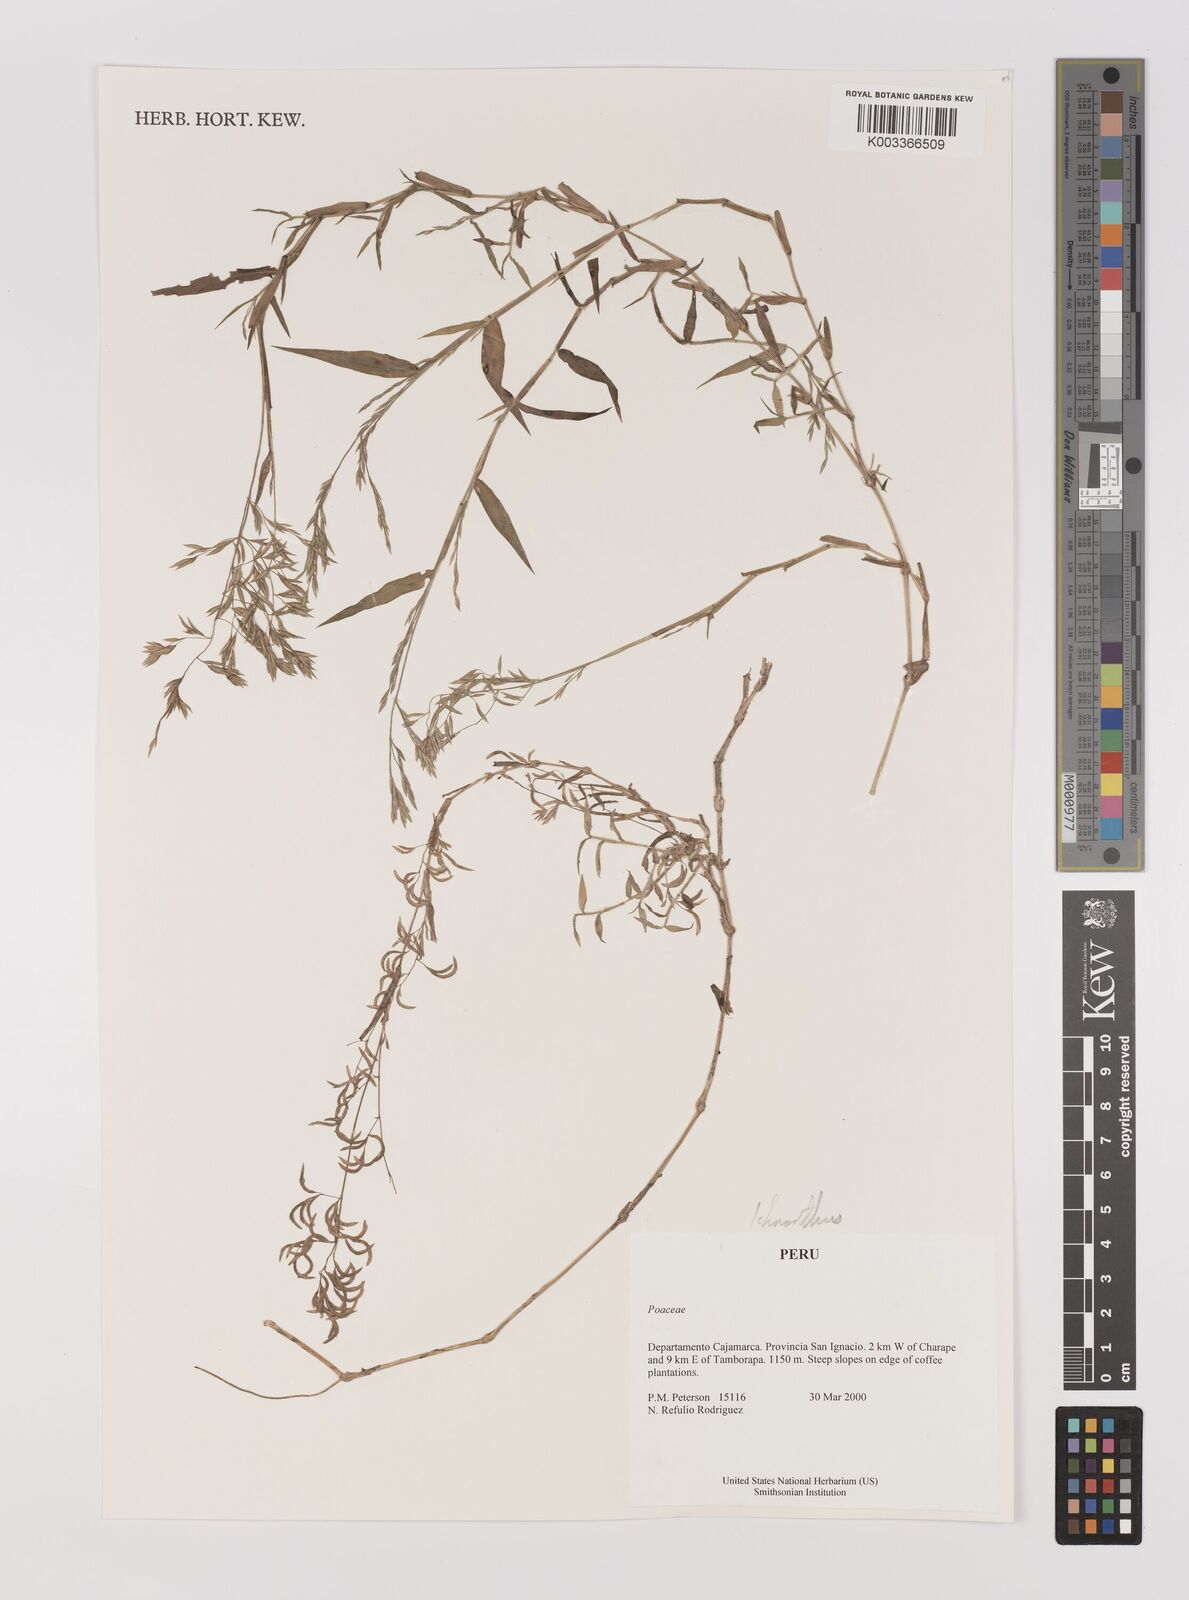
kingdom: Plantae
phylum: Tracheophyta
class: Liliopsida
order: Poales
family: Poaceae
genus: Ichnanthus
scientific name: Ichnanthus
